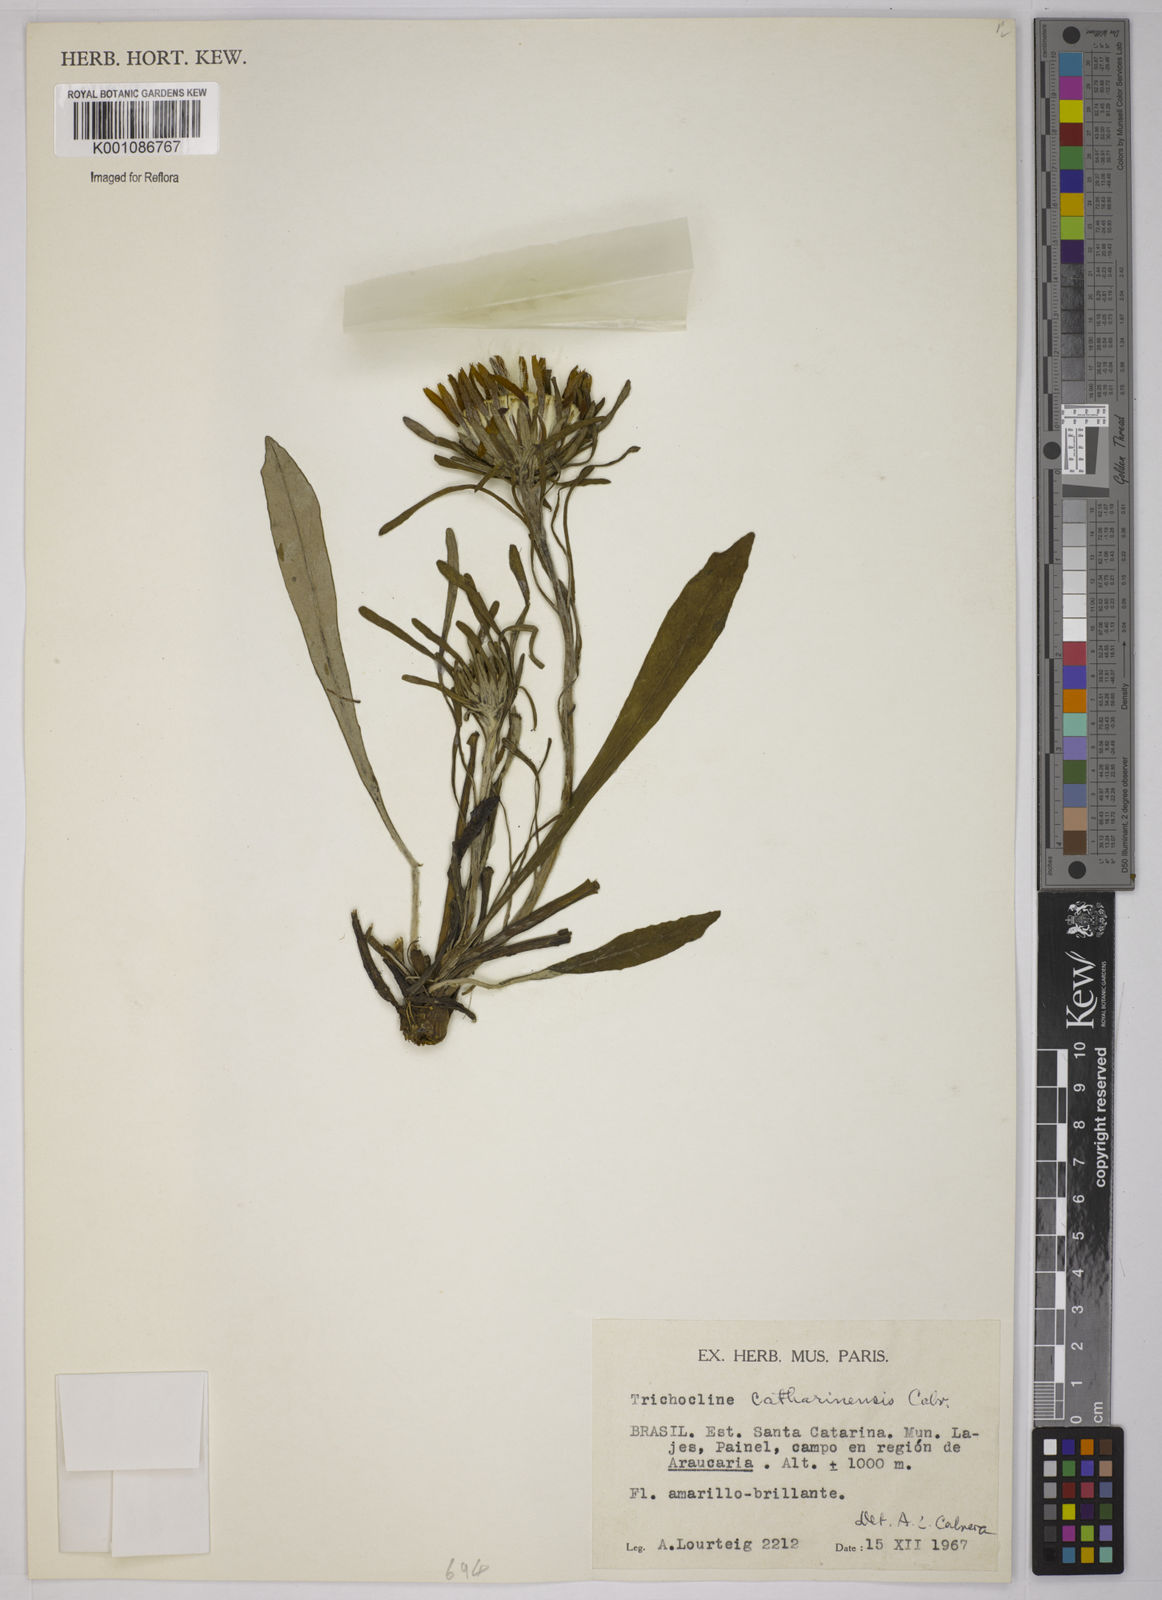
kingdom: Plantae
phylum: Tracheophyta
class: Magnoliopsida
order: Asterales
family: Asteraceae
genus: Trichocline
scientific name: Trichocline catharinensis
